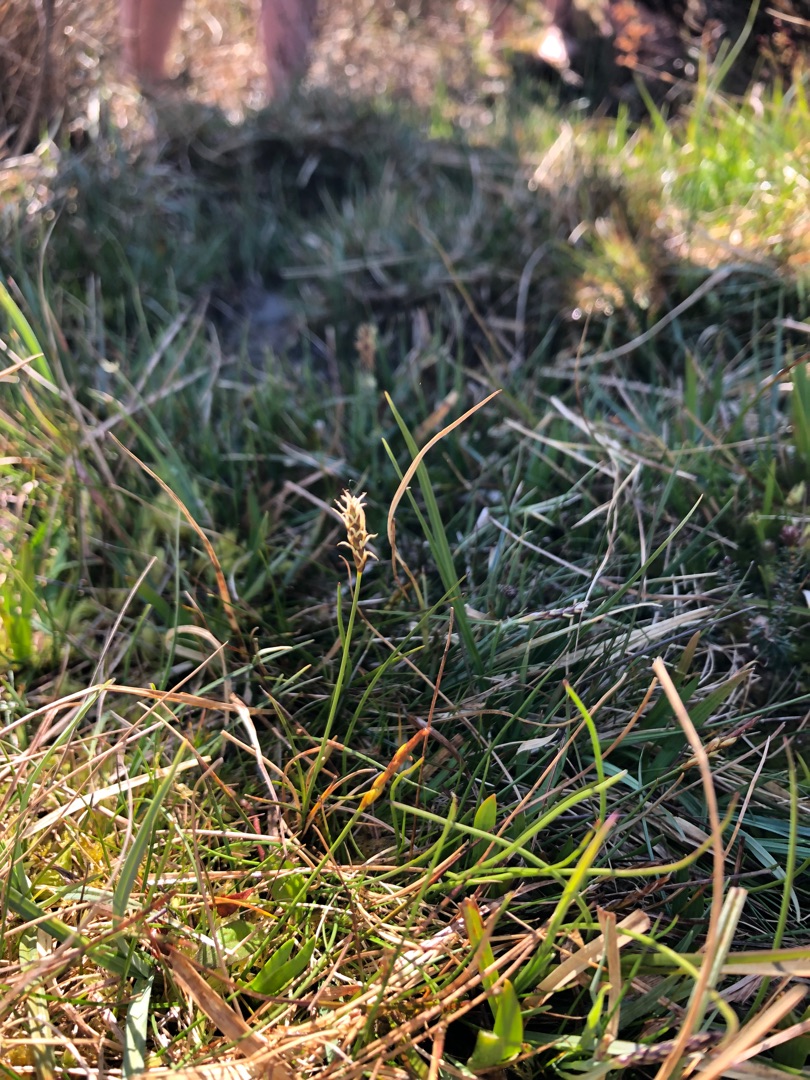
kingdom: Plantae
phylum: Tracheophyta
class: Liliopsida
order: Poales
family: Cyperaceae
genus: Carex
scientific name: Carex dioica
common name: Tvebo star
